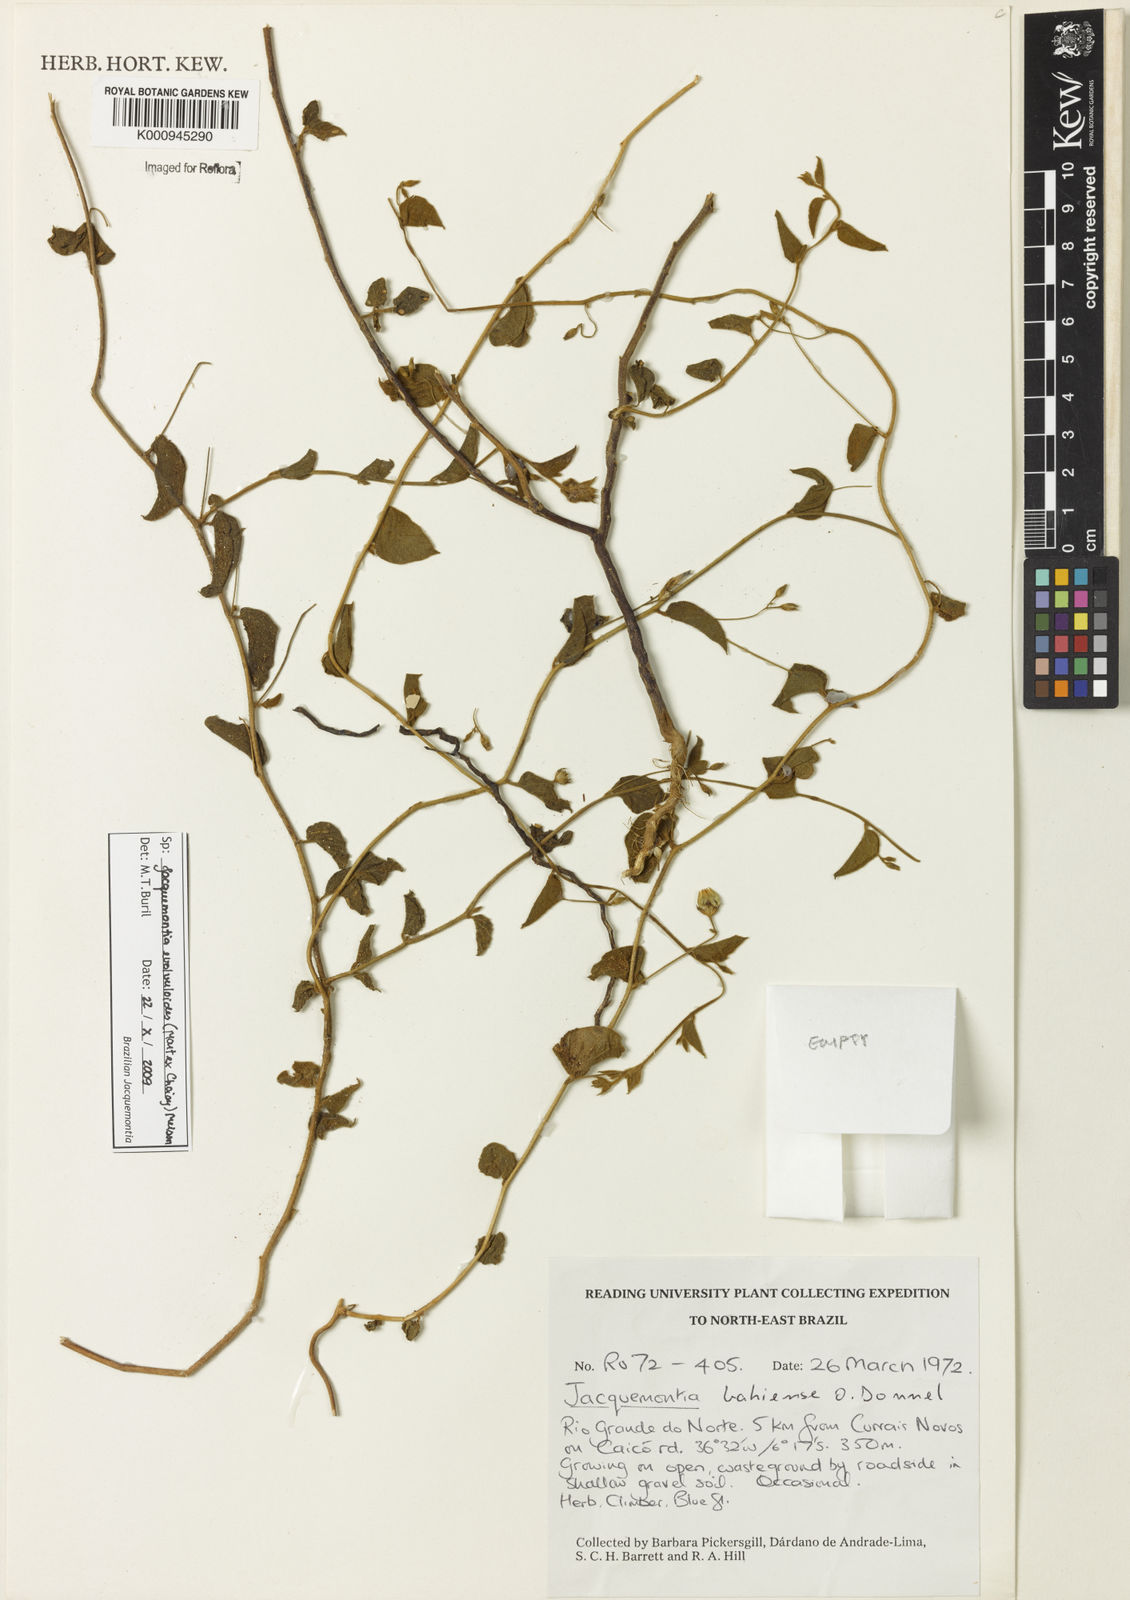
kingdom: Plantae
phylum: Tracheophyta
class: Magnoliopsida
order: Solanales
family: Convolvulaceae
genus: Jacquemontia
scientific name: Jacquemontia
